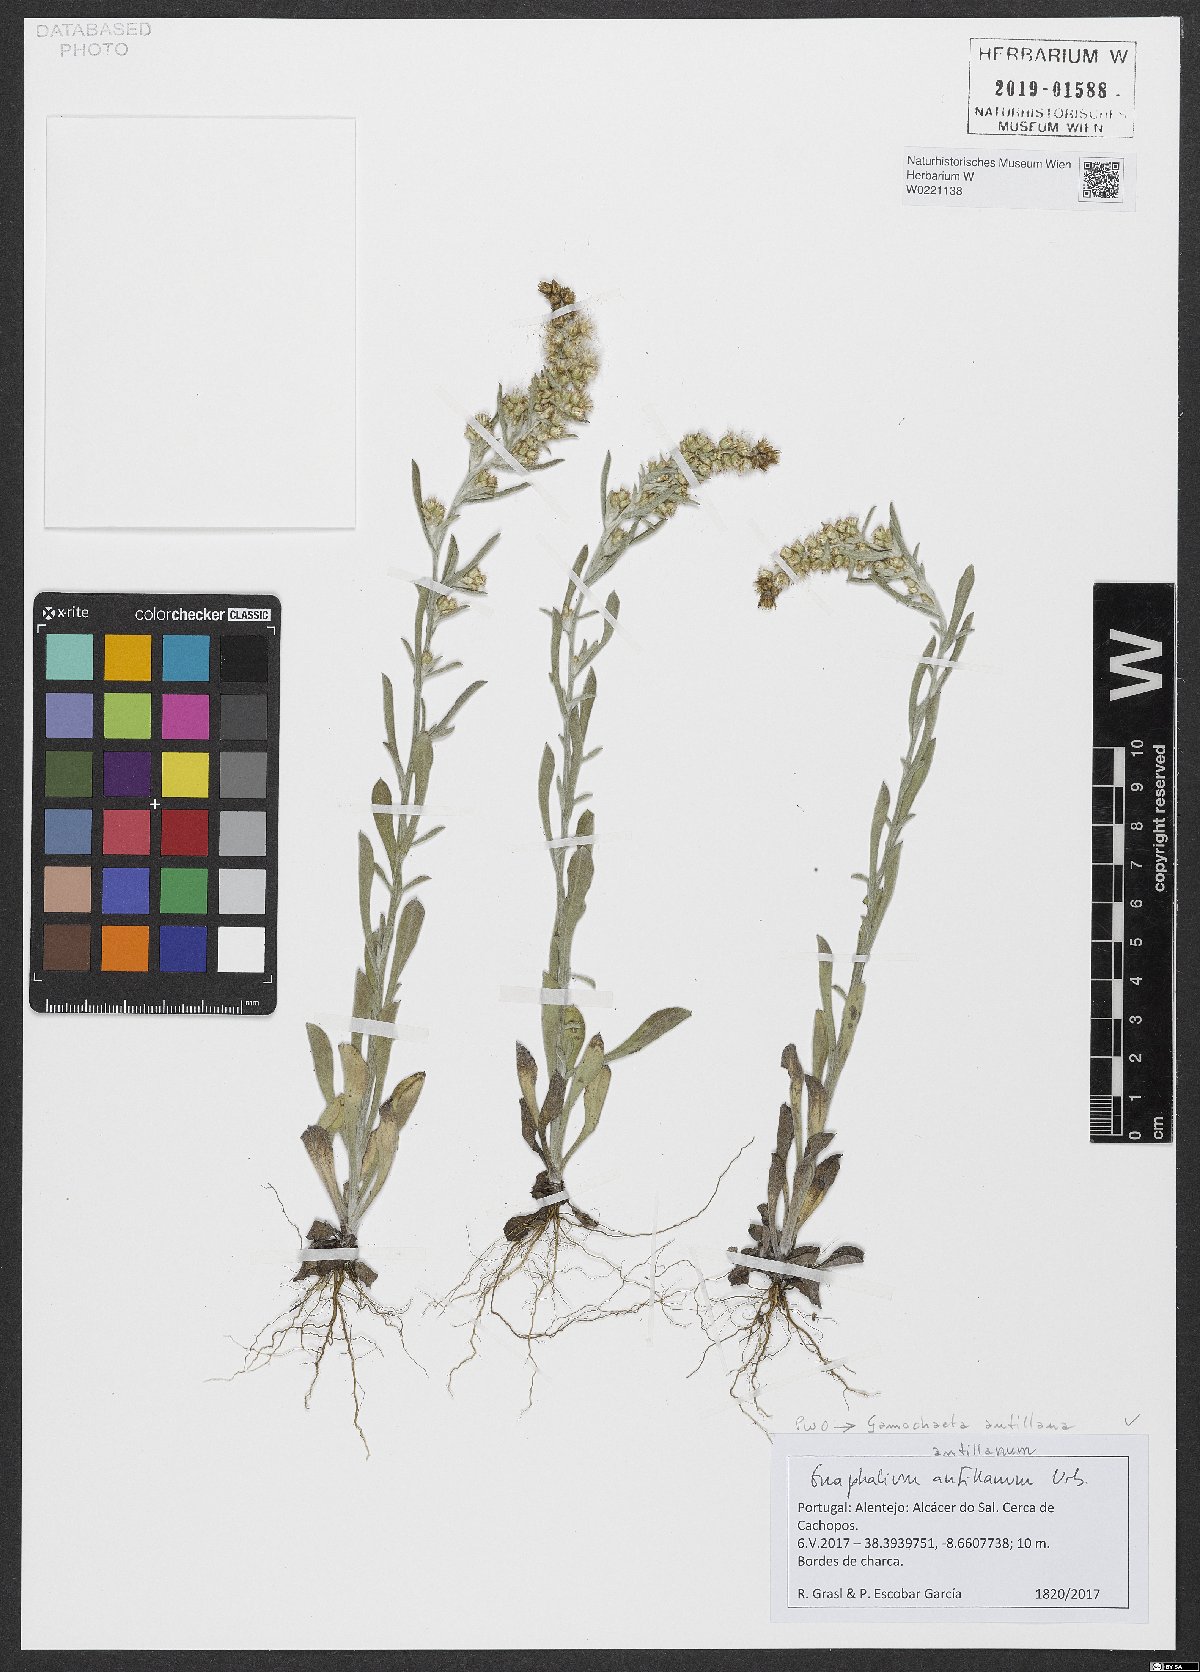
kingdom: Plantae
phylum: Tracheophyta
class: Magnoliopsida
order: Asterales
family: Asteraceae
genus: Gamochaeta
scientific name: Gamochaeta antillana
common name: Delicate everlasting
